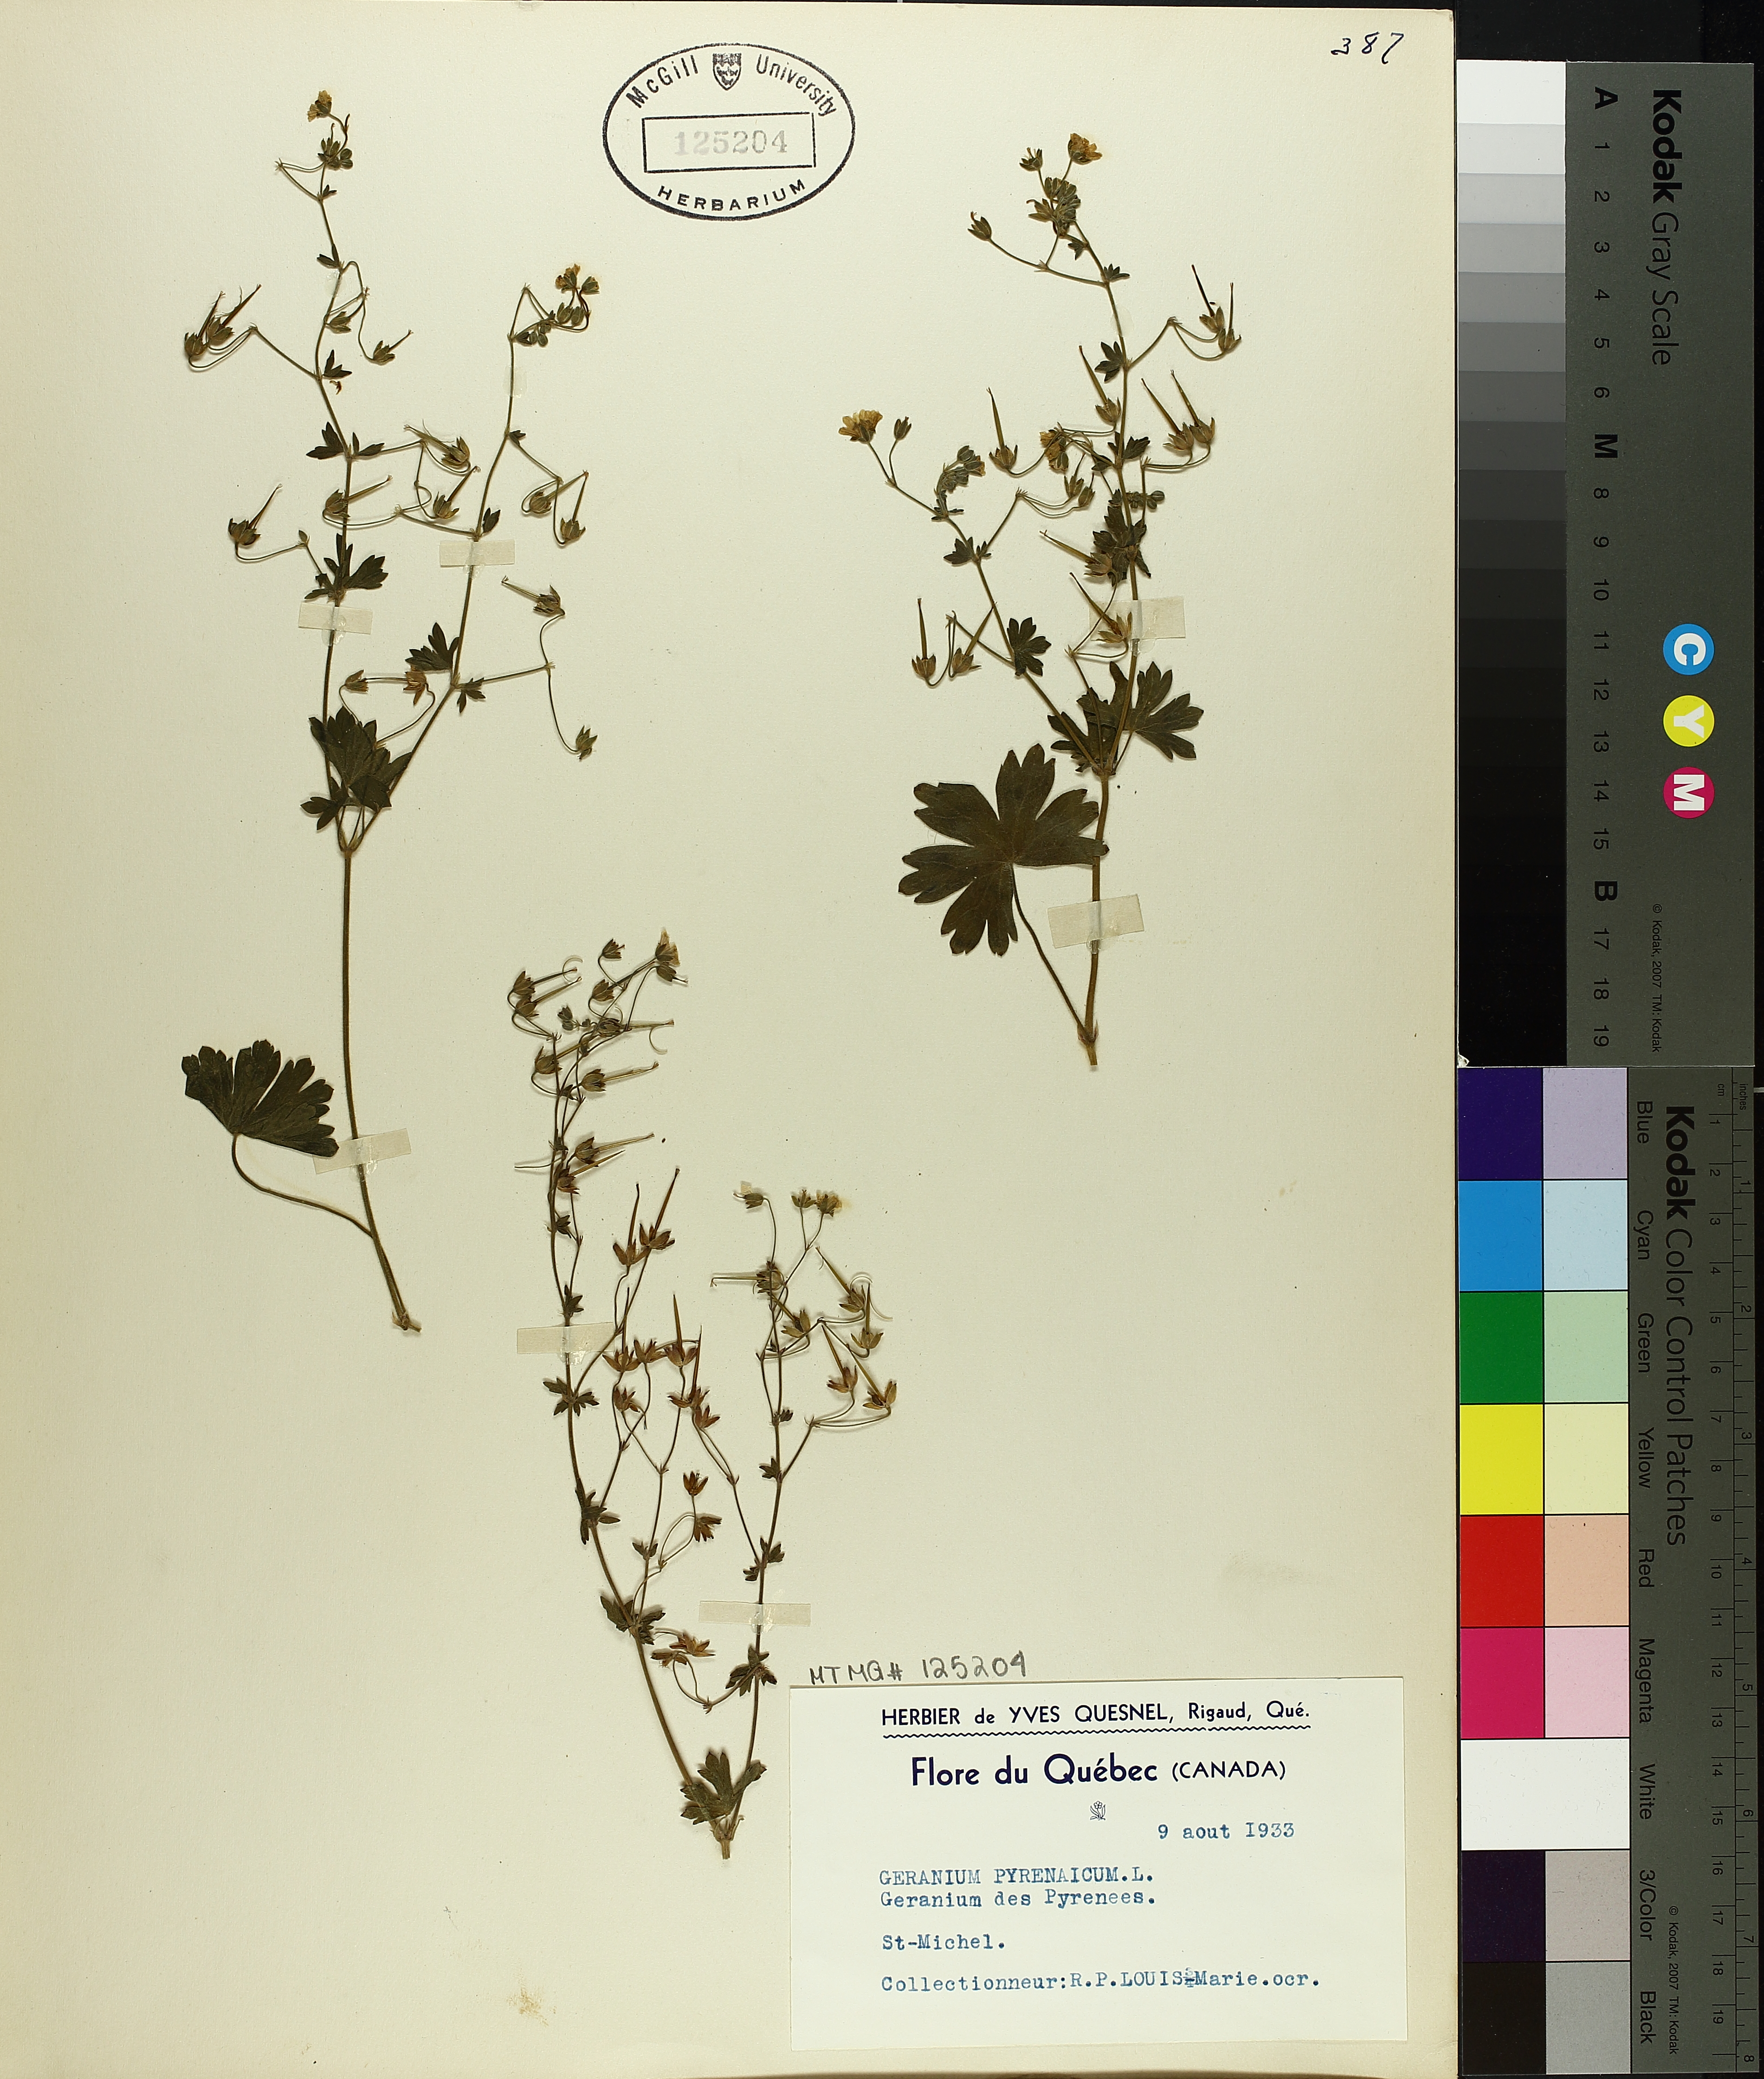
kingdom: Plantae
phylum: Tracheophyta
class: Magnoliopsida
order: Geraniales
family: Geraniaceae
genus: Geranium
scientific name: Geranium pyrenaicum
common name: Hedgerow crane's-bill
